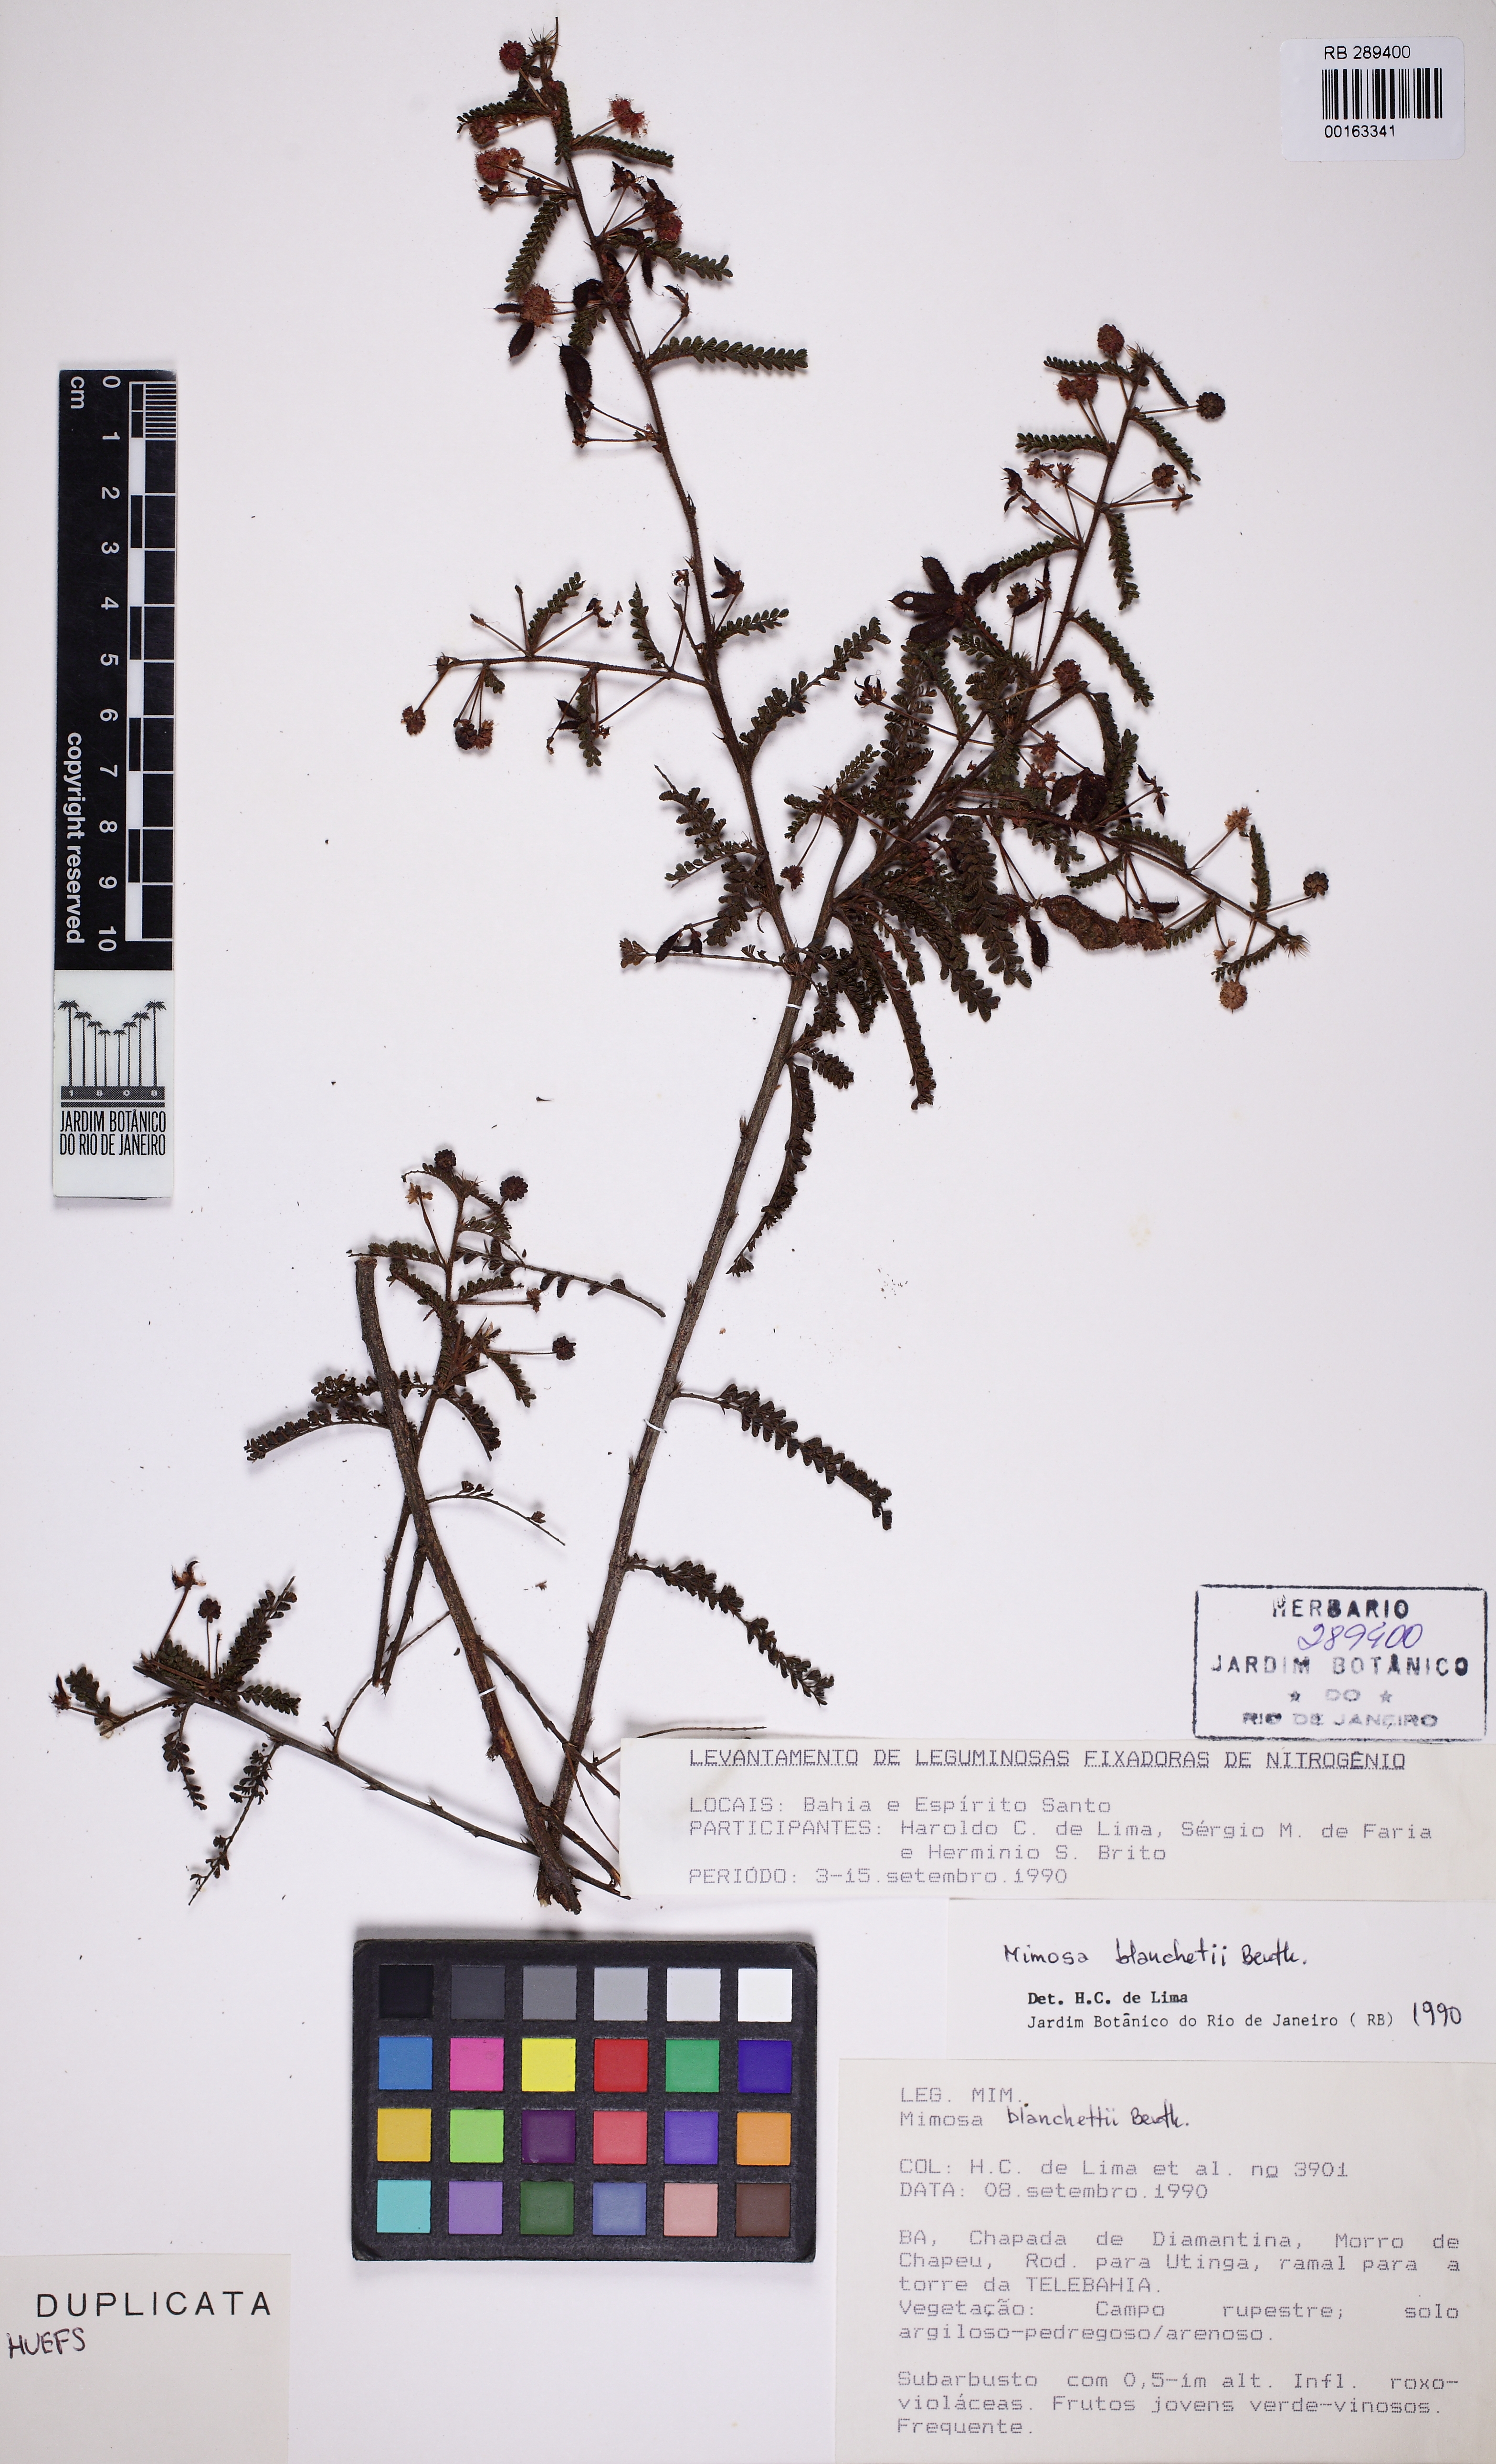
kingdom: Plantae
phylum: Tracheophyta
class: Magnoliopsida
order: Fabales
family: Fabaceae
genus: Mimosa
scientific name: Mimosa blanchetii
